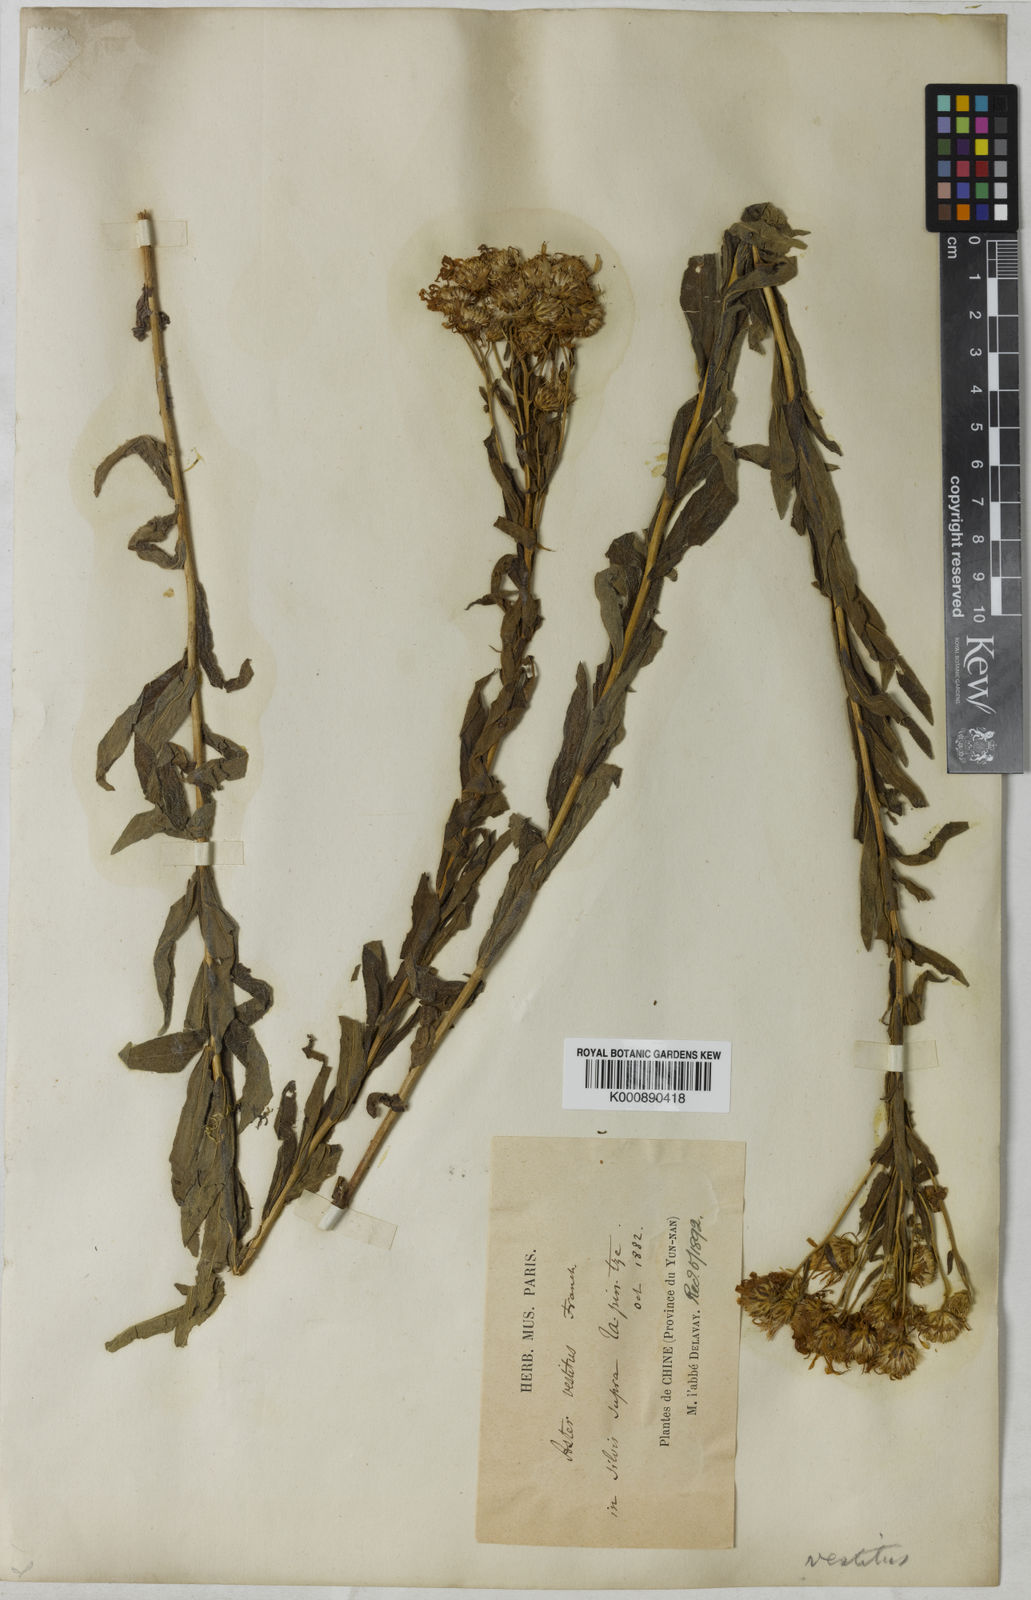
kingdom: Plantae
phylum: Tracheophyta
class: Magnoliopsida
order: Asterales
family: Asteraceae
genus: Aster
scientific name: Aster vestitus
